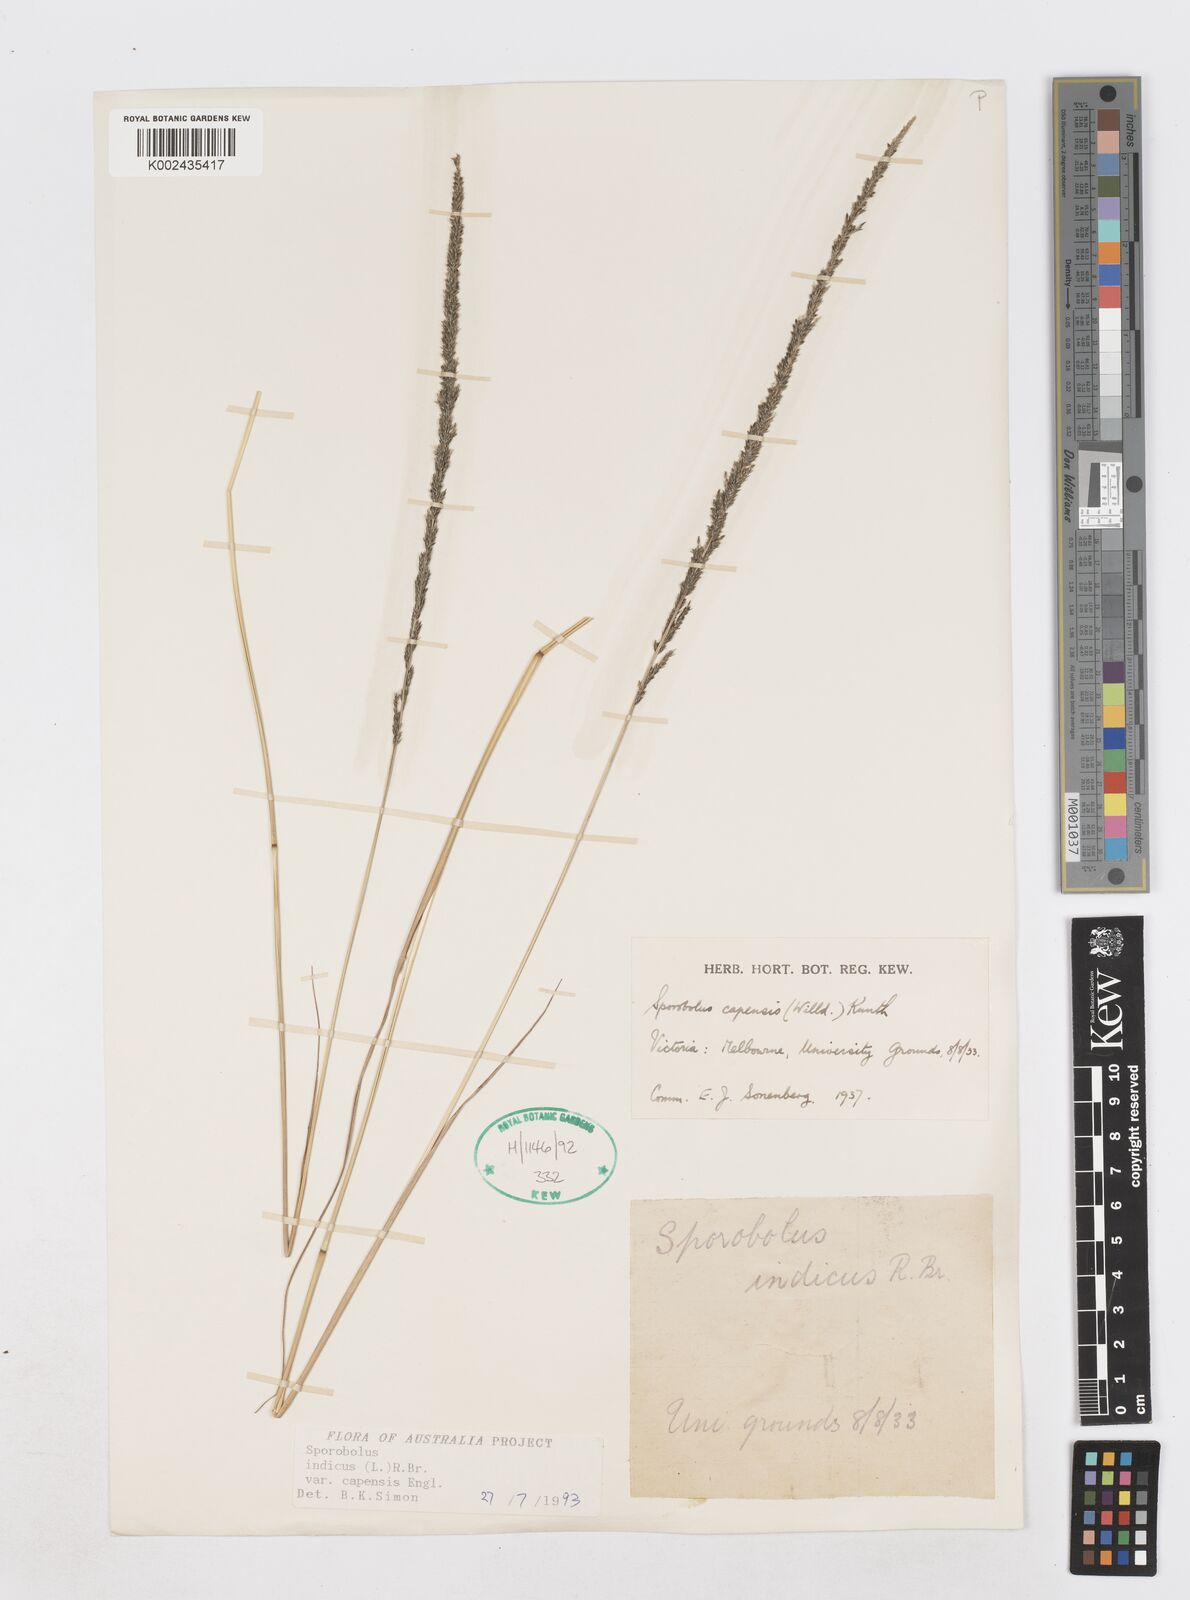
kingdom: Plantae
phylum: Tracheophyta
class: Liliopsida
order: Poales
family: Poaceae
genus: Sporobolus
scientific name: Sporobolus africanus
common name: African dropseed
